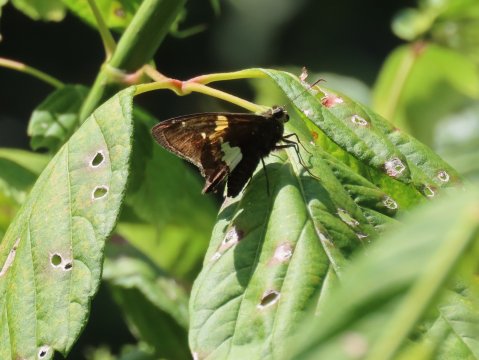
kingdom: Animalia
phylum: Arthropoda
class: Insecta
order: Lepidoptera
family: Hesperiidae
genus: Epargyreus
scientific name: Epargyreus clarus
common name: Silver-spotted Skipper
